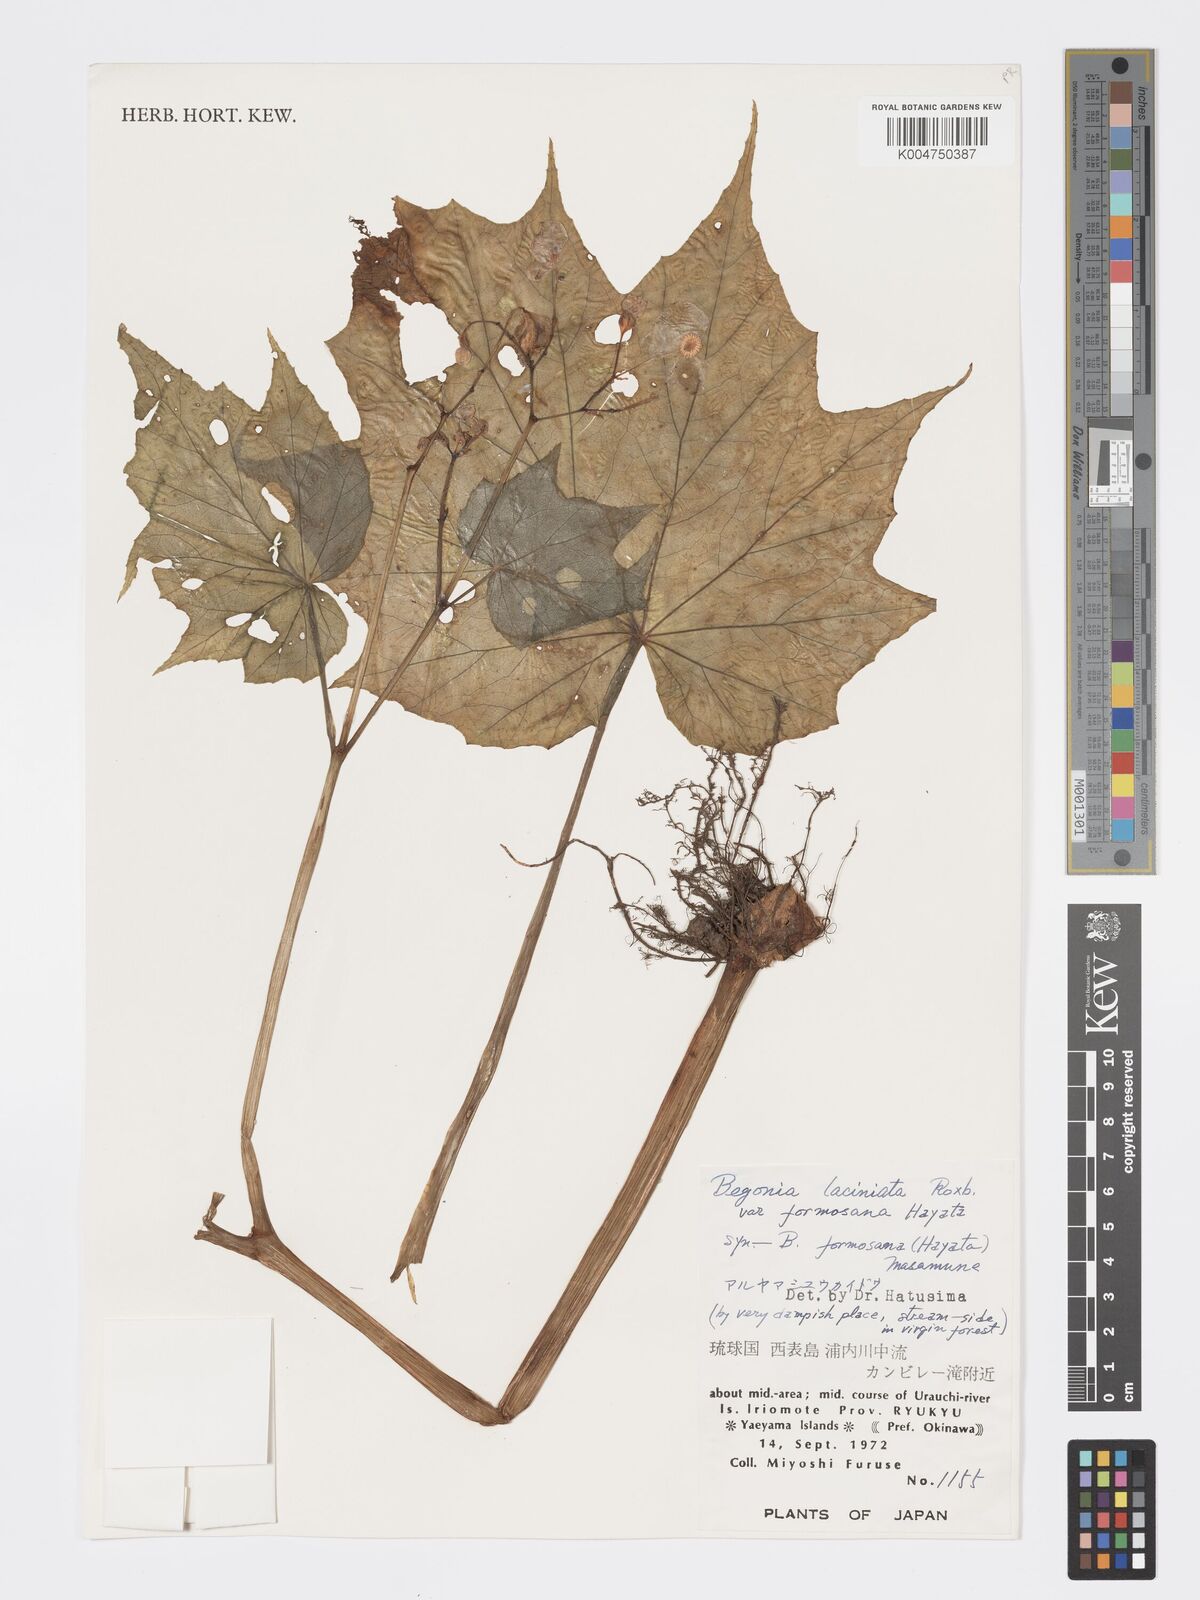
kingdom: Plantae
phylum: Tracheophyta
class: Magnoliopsida
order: Cucurbitales
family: Begoniaceae
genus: Begonia
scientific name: Begonia formosana
